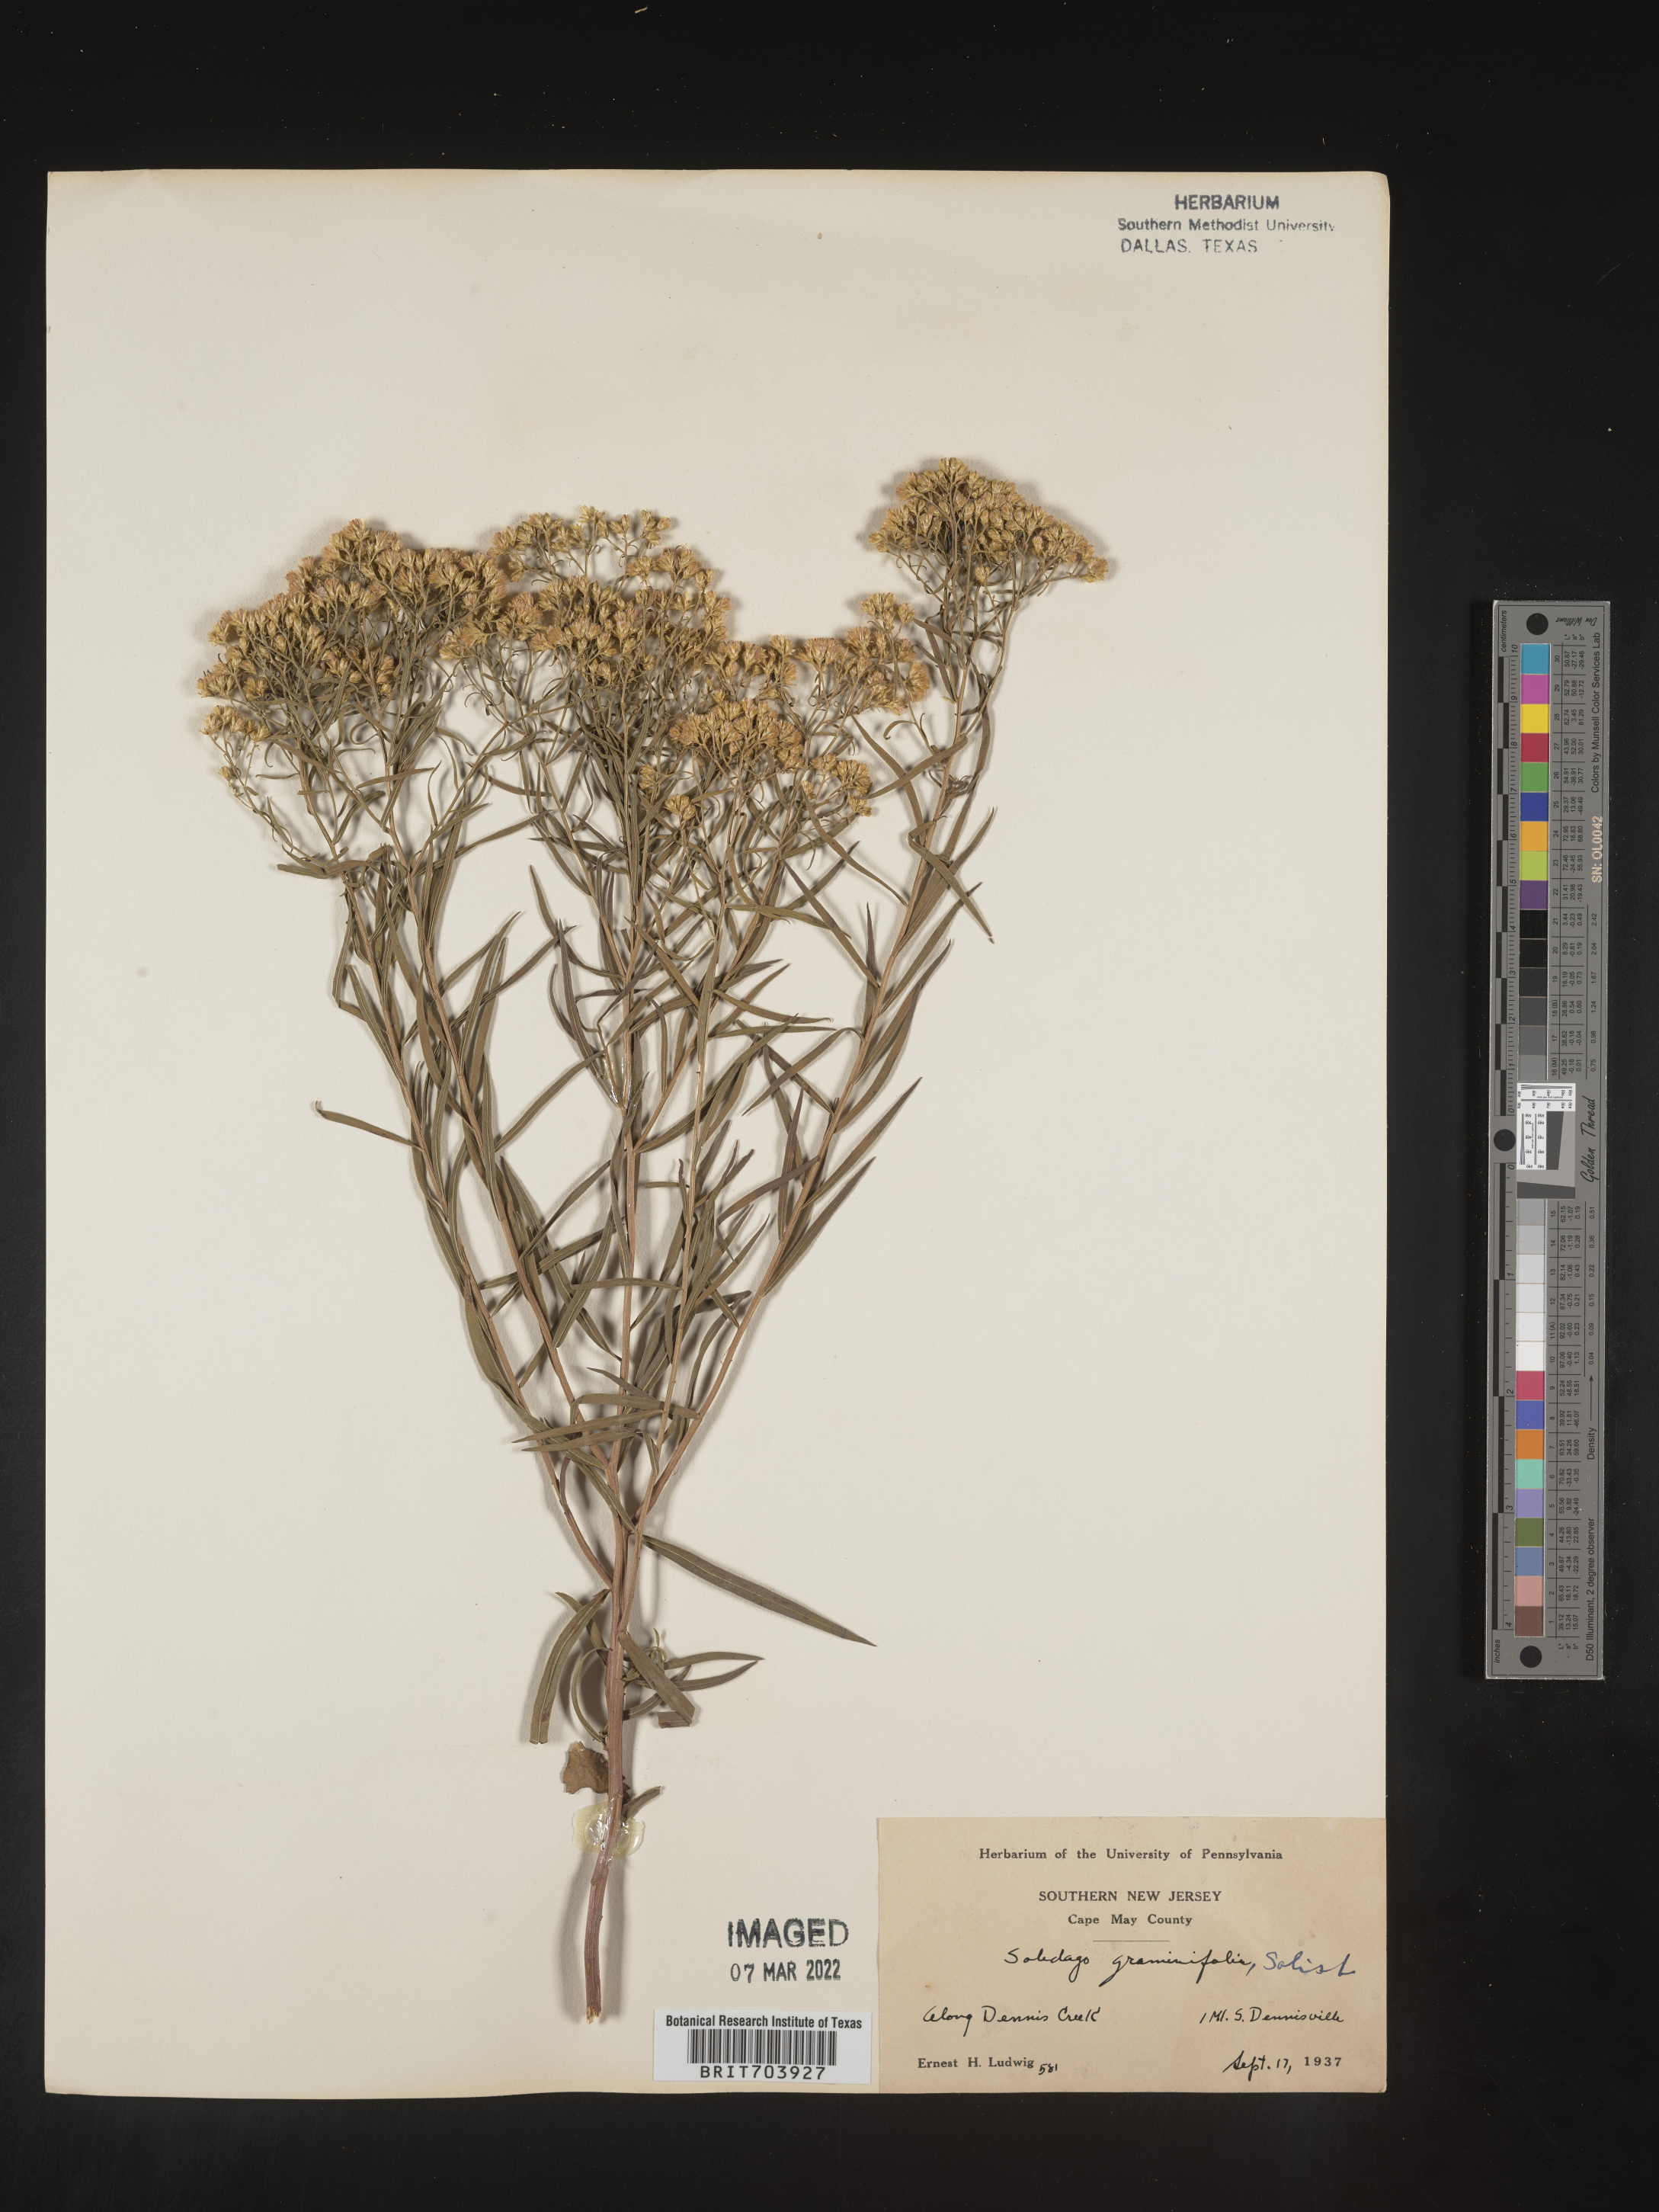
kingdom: Plantae
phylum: Tracheophyta
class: Magnoliopsida
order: Asterales
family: Asteraceae
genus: Euthamia
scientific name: Euthamia graminifolia
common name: Common goldentop
